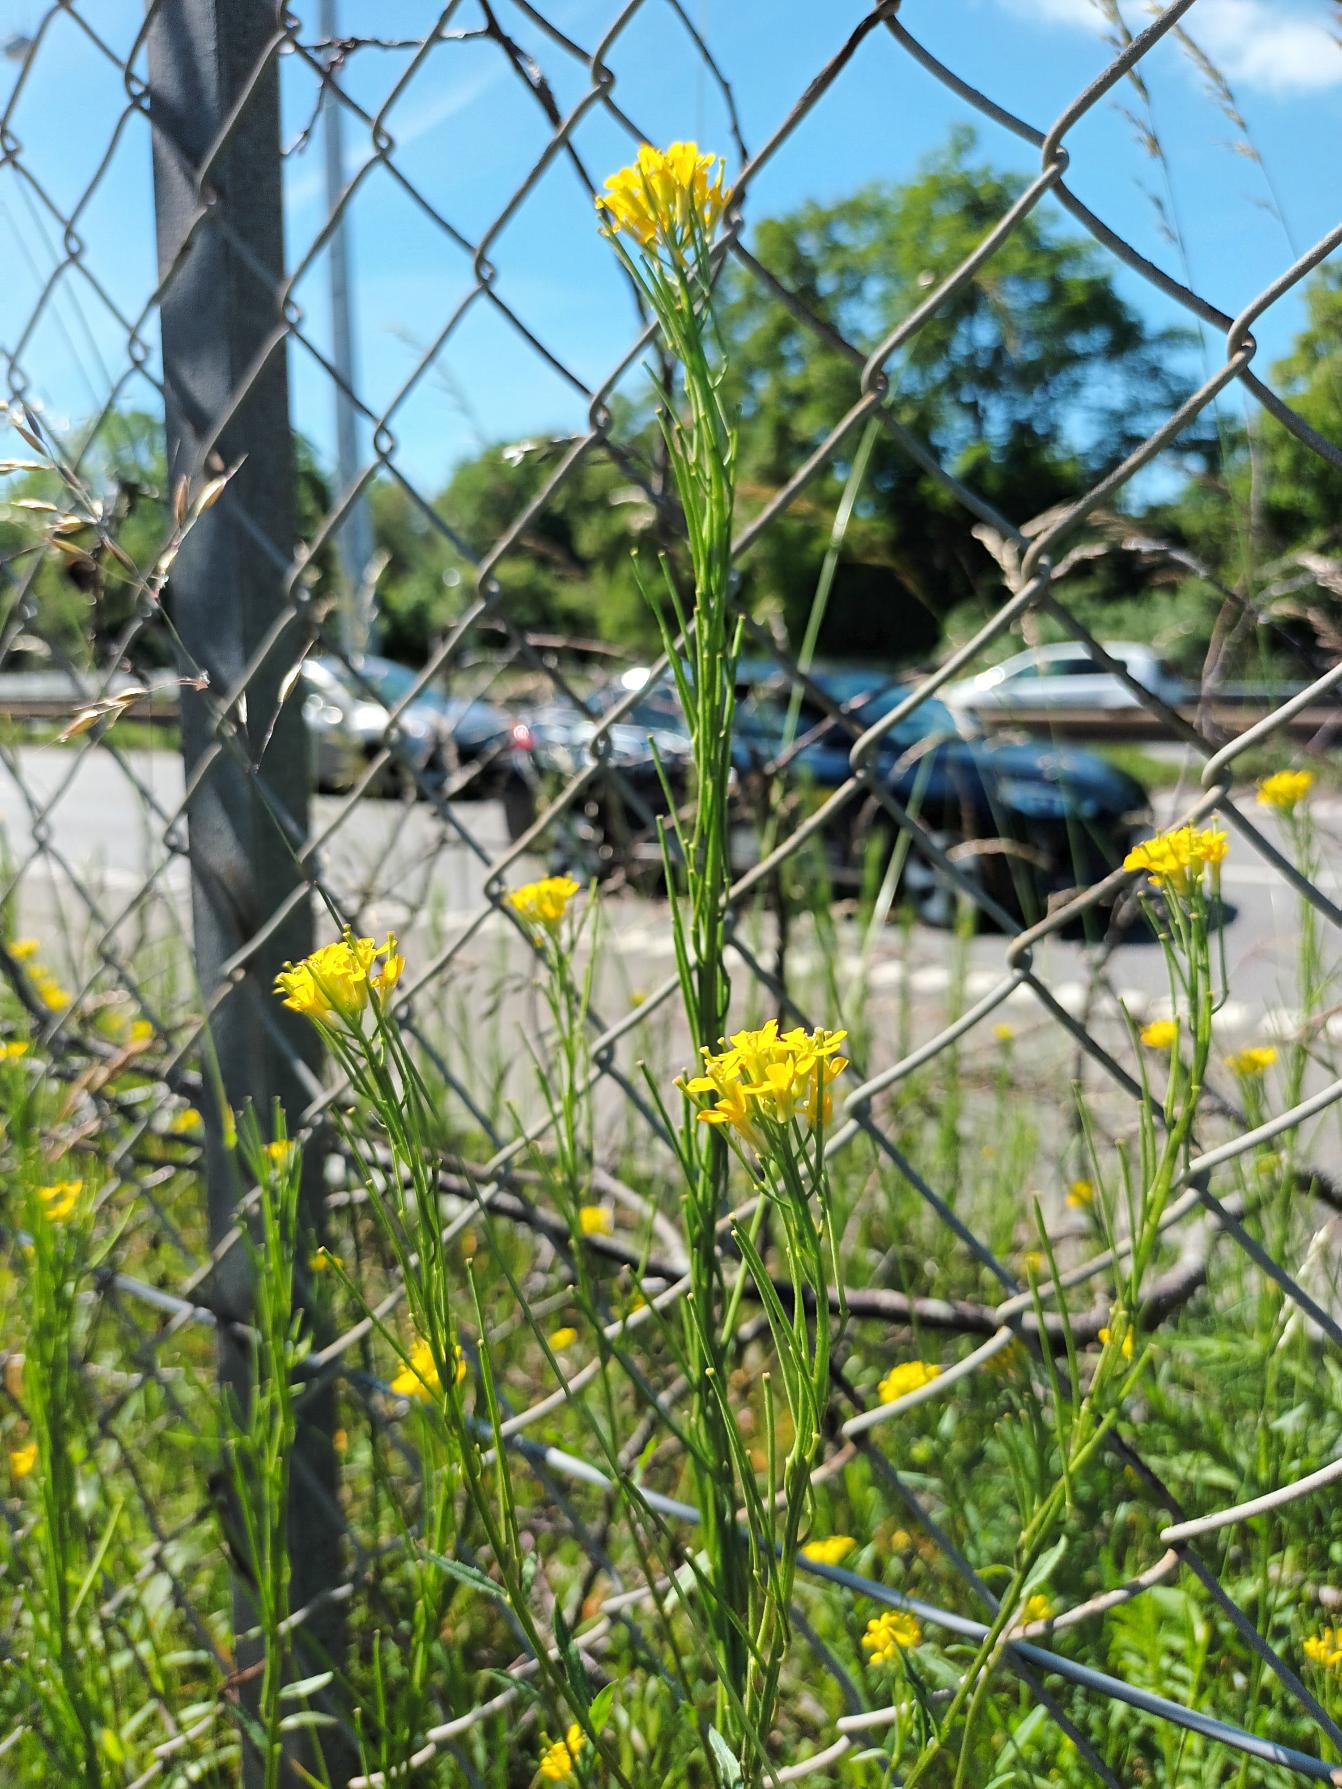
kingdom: Plantae
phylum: Tracheophyta
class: Magnoliopsida
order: Brassicales
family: Brassicaceae
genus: Erysimum
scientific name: Erysimum strictum
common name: Rank hjørneklap
